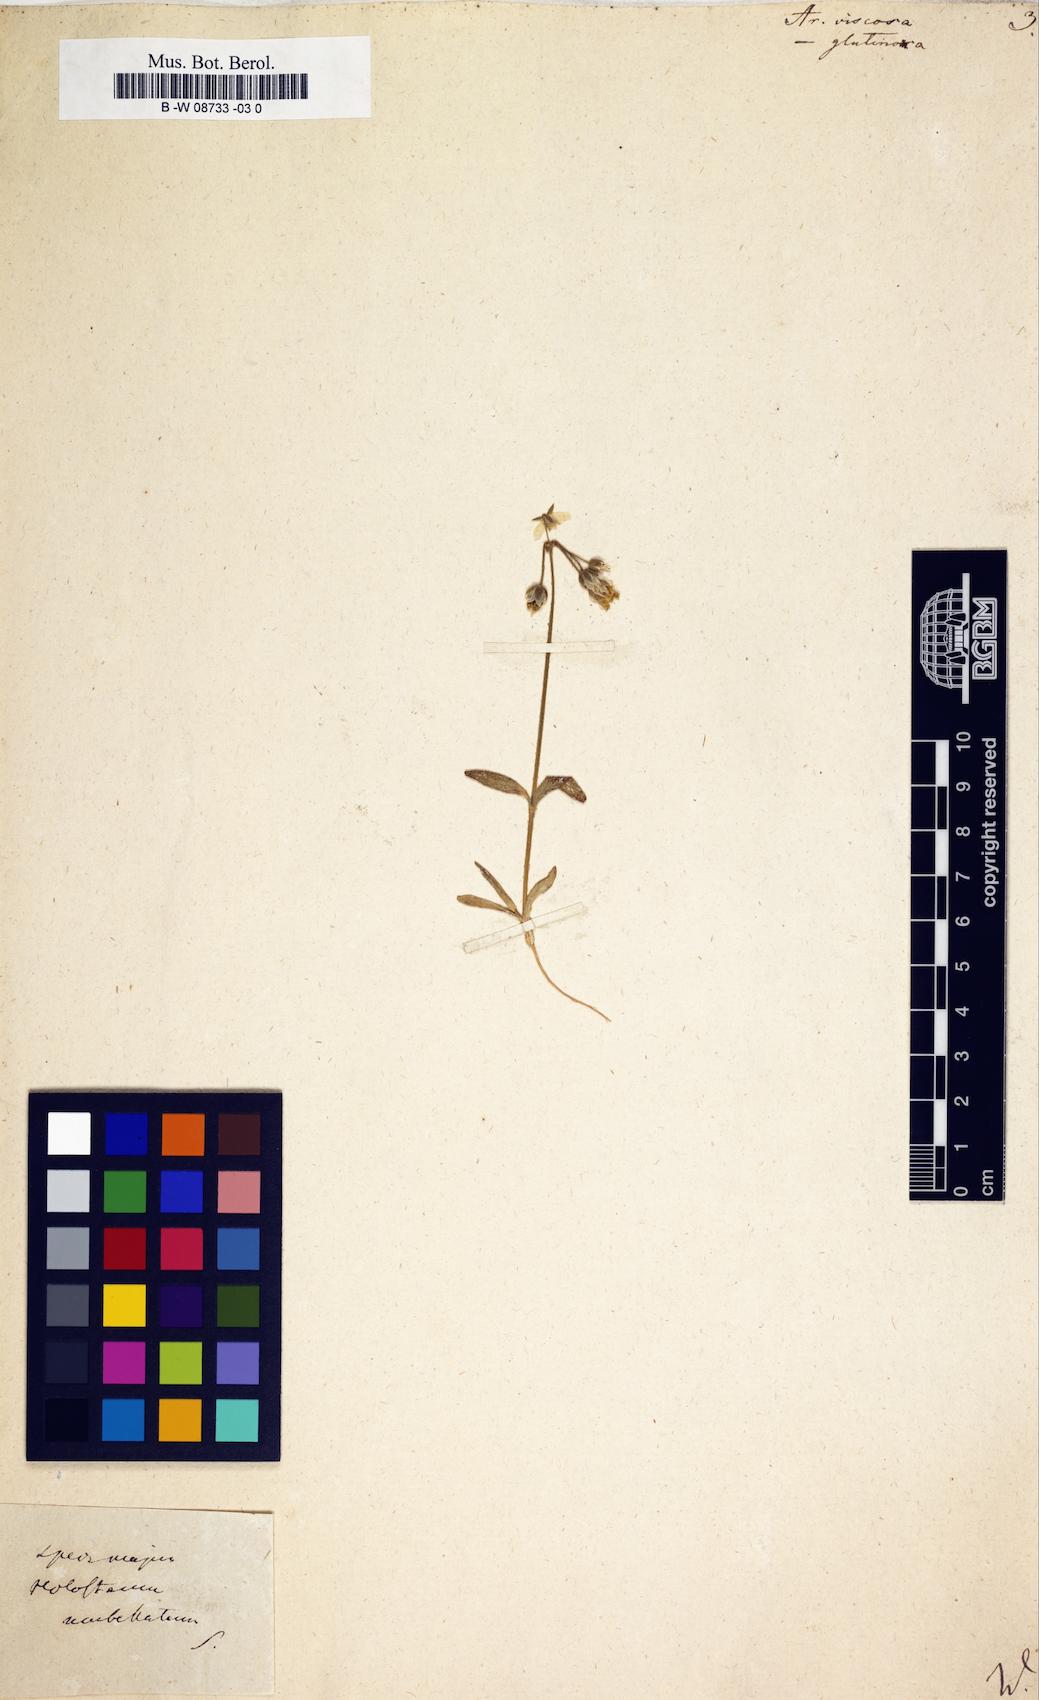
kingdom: Plantae
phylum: Tracheophyta
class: Magnoliopsida
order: Caryophyllales
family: Caryophyllaceae
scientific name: Caryophyllaceae
